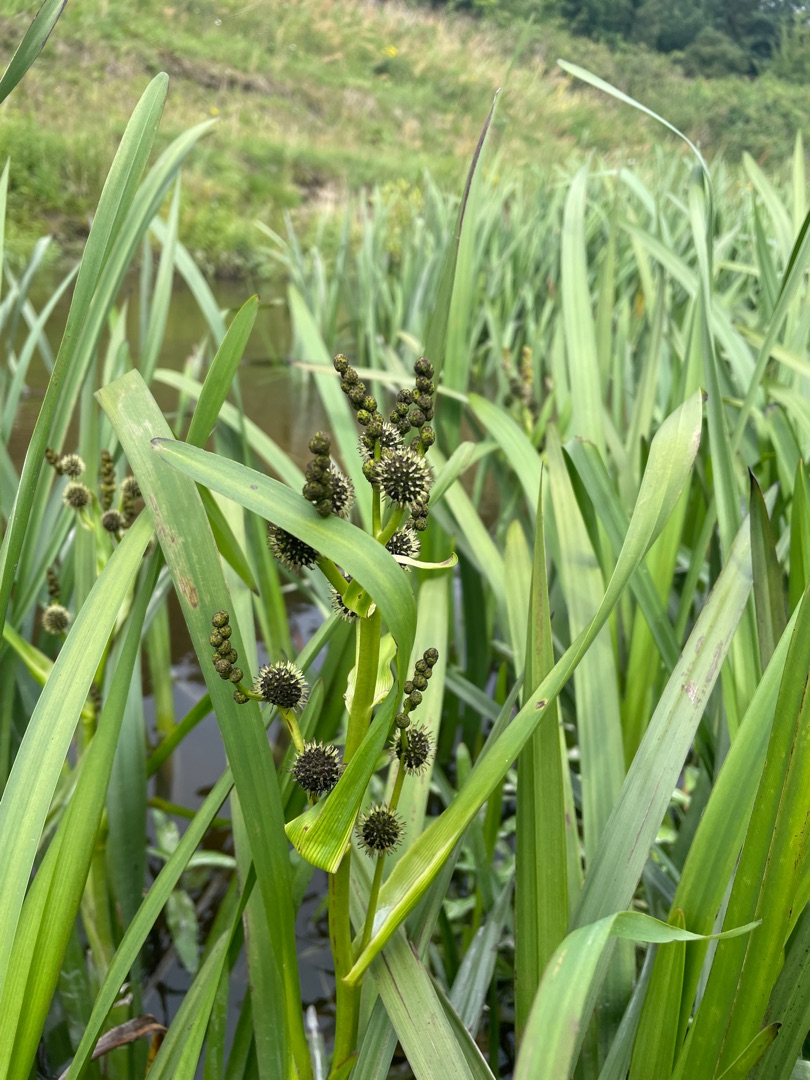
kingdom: Plantae
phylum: Tracheophyta
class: Liliopsida
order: Poales
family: Typhaceae
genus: Sparganium
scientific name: Sparganium erectum
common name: Grenet pindsvineknop
